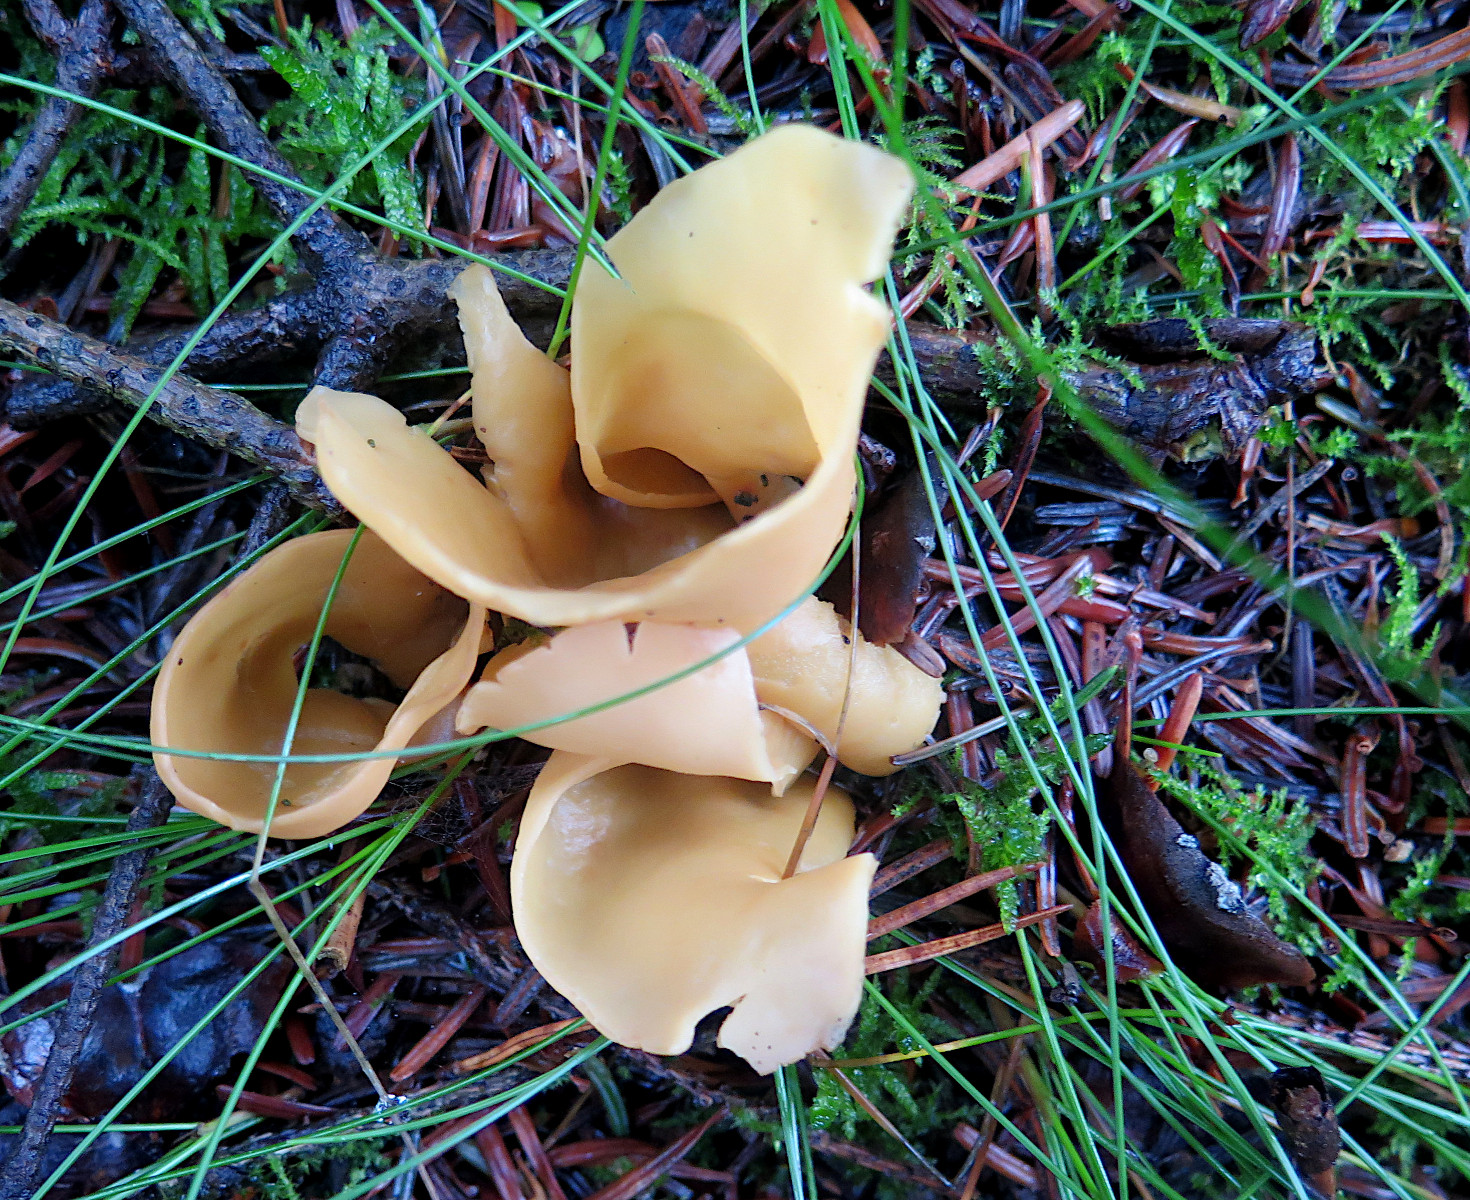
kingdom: Fungi
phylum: Ascomycota
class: Pezizomycetes
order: Pezizales
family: Otideaceae
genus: Otidea
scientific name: Otidea onotica
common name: æsel-ørebæger
